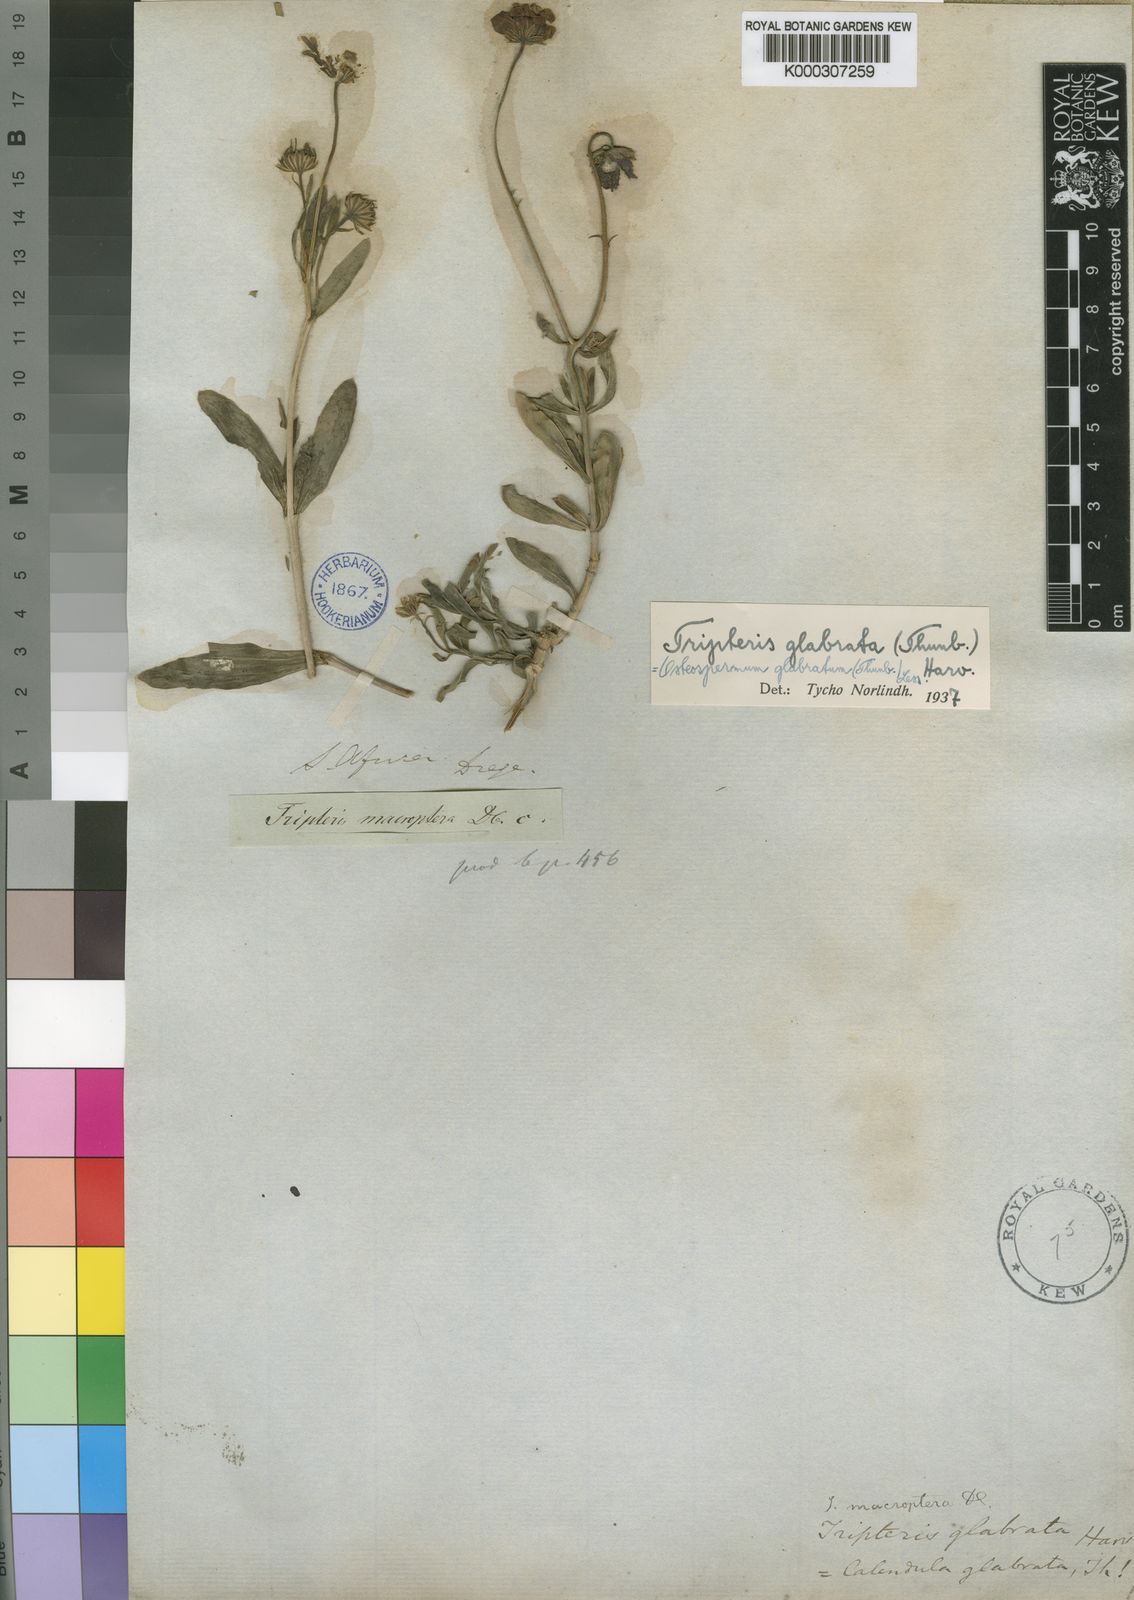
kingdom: Plantae
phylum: Tracheophyta
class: Magnoliopsida
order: Asterales
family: Asteraceae
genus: Osteospermum
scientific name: Osteospermum oppositifolium
